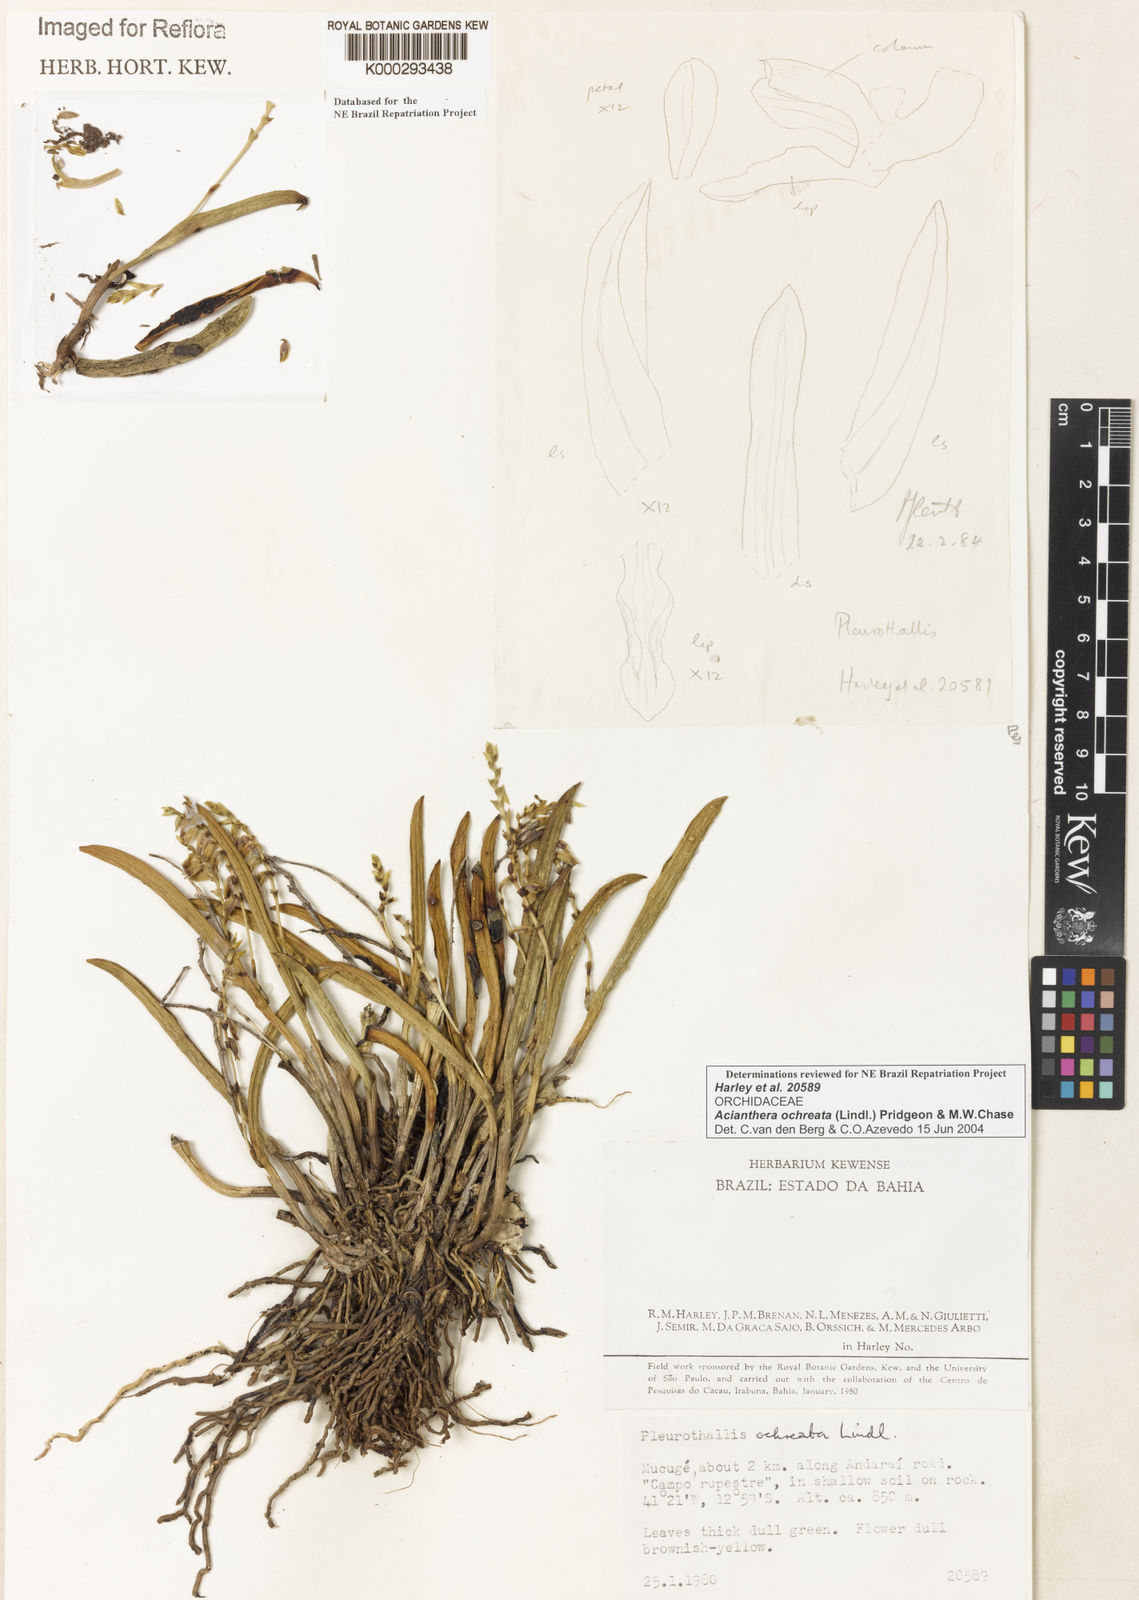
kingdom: Plantae
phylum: Tracheophyta
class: Liliopsida
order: Asparagales
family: Orchidaceae
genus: Acianthera
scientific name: Acianthera ochreata
